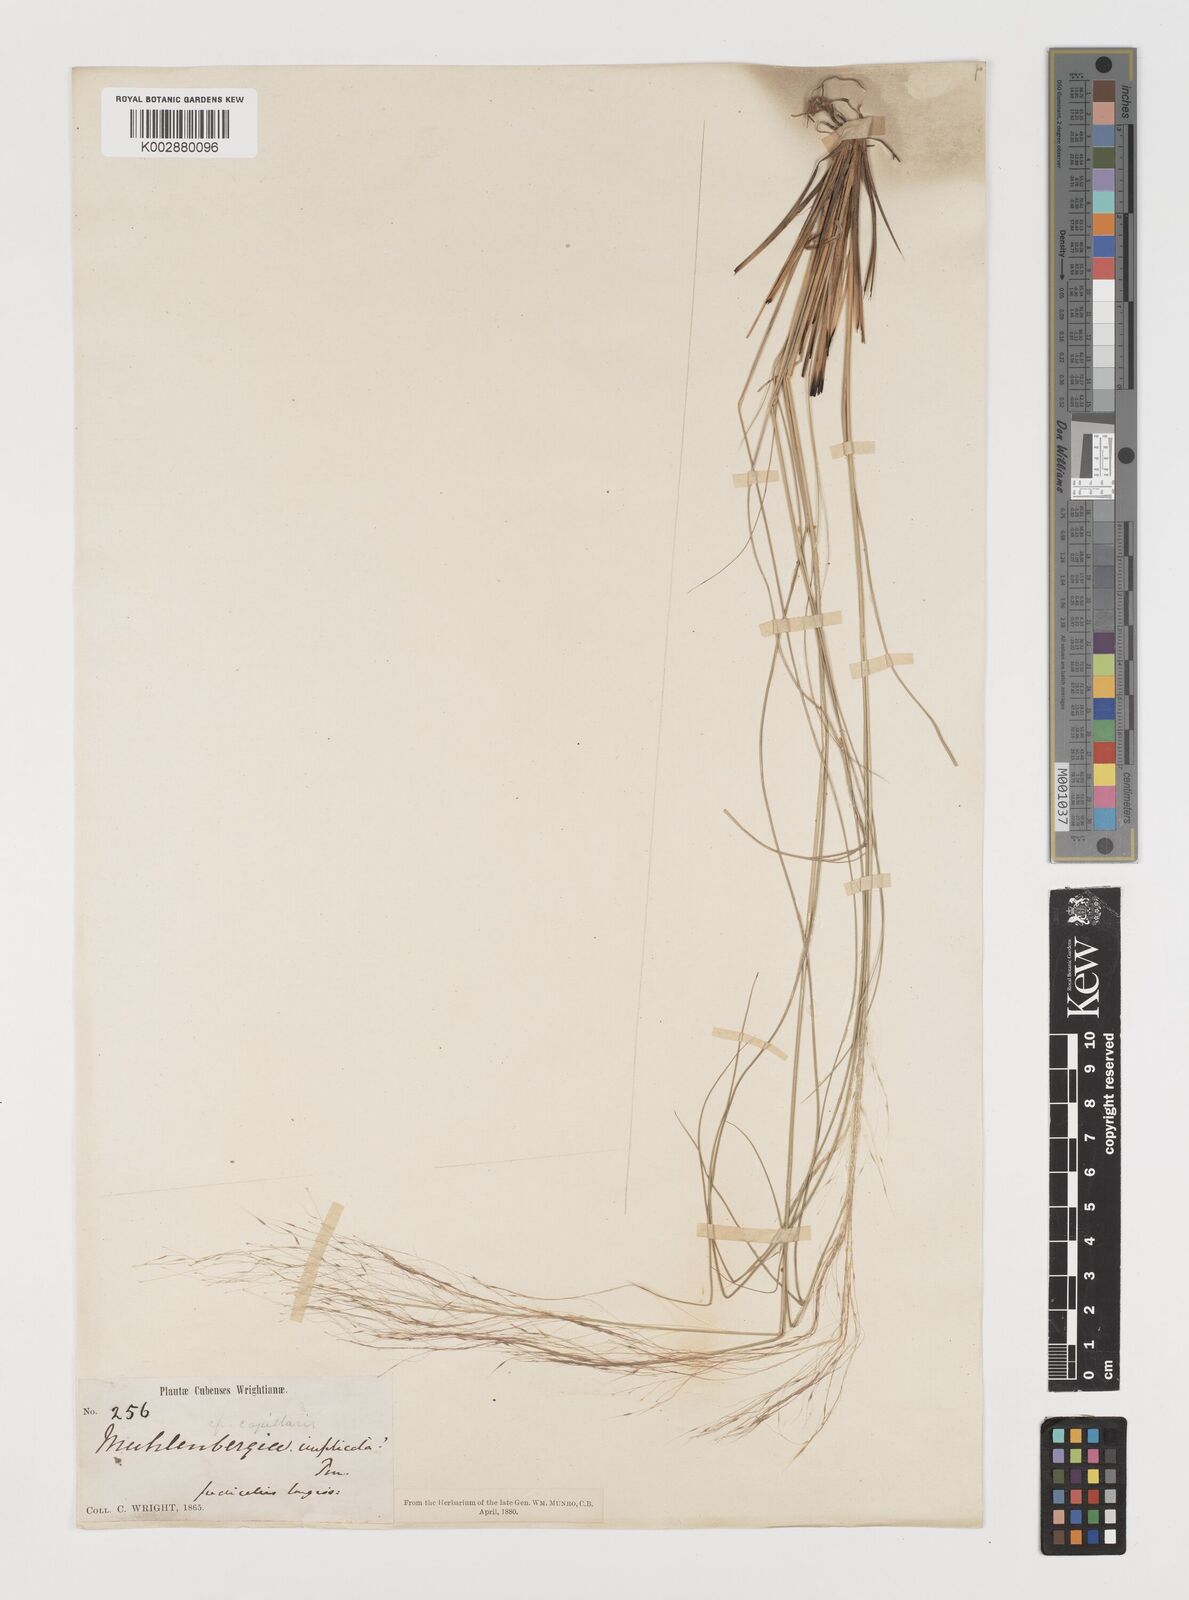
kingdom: Plantae
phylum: Tracheophyta
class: Liliopsida
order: Poales
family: Poaceae
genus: Muhlenbergia
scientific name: Muhlenbergia capillaris
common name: Purple grass
